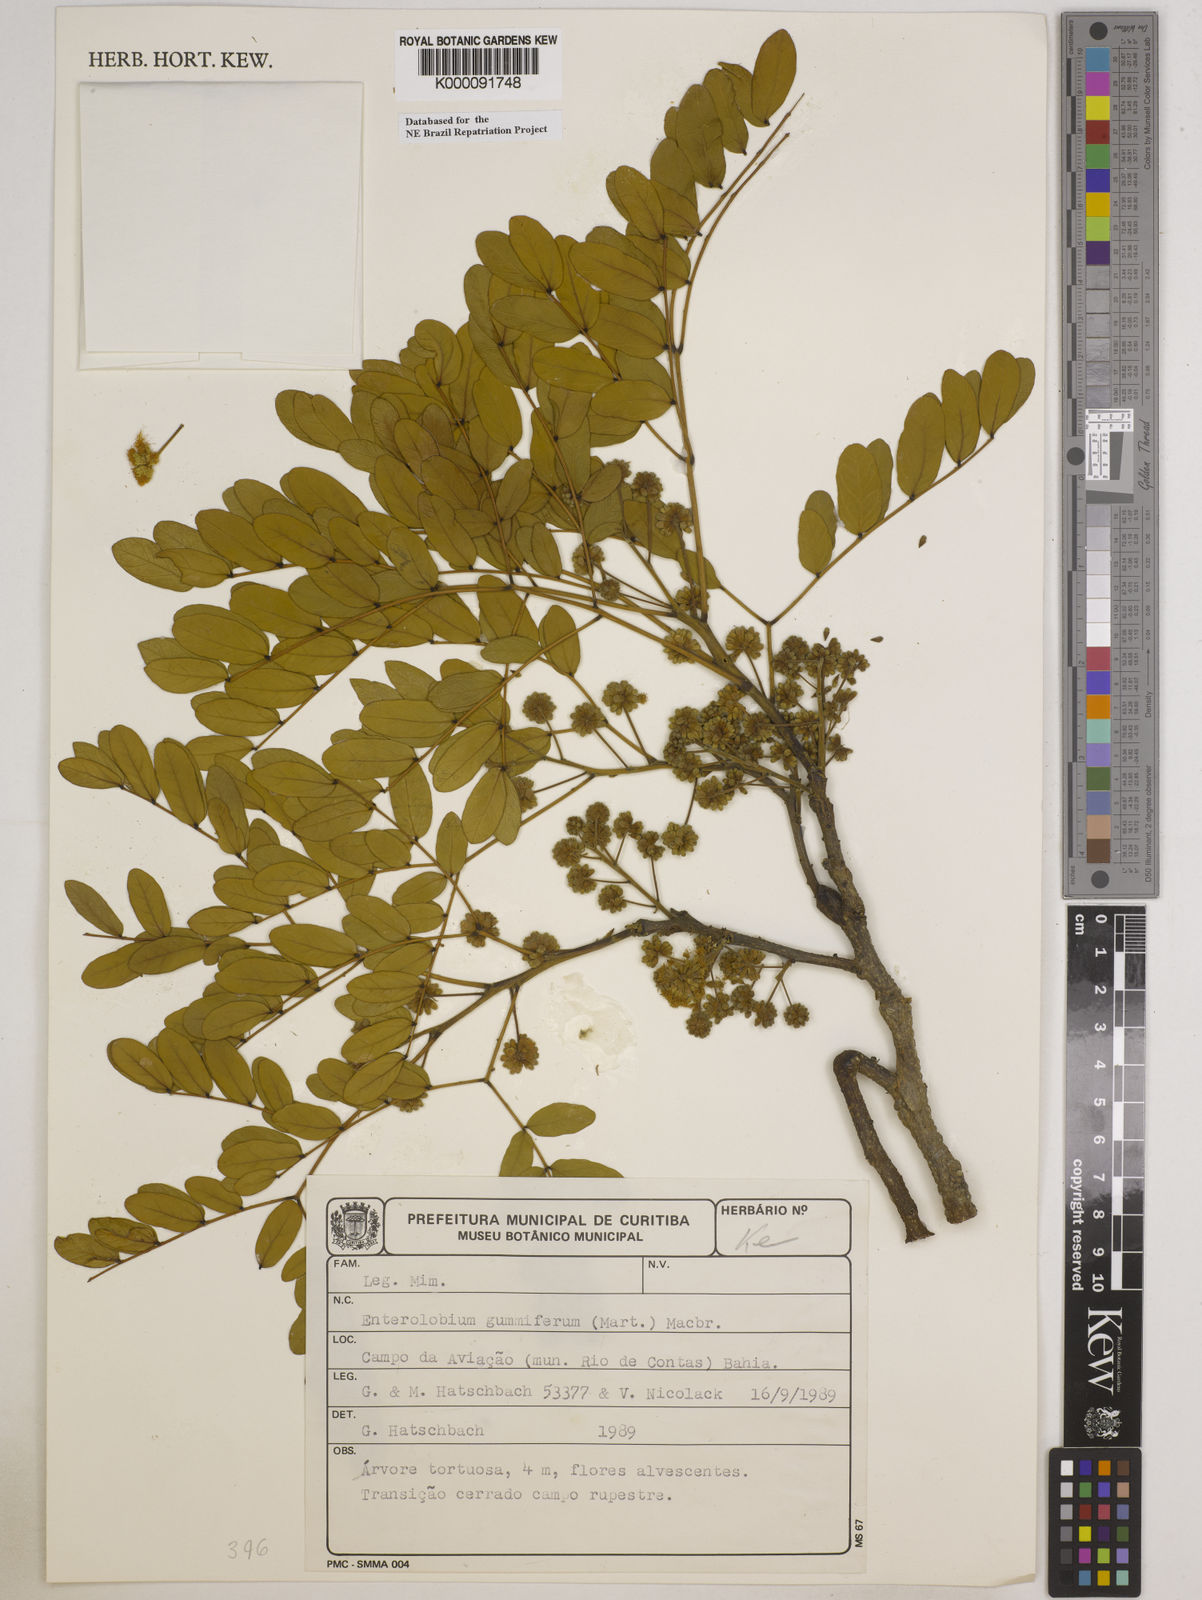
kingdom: Plantae
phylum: Tracheophyta
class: Magnoliopsida
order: Fabales
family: Fabaceae
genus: Enterolobium
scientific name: Enterolobium gummiferum
